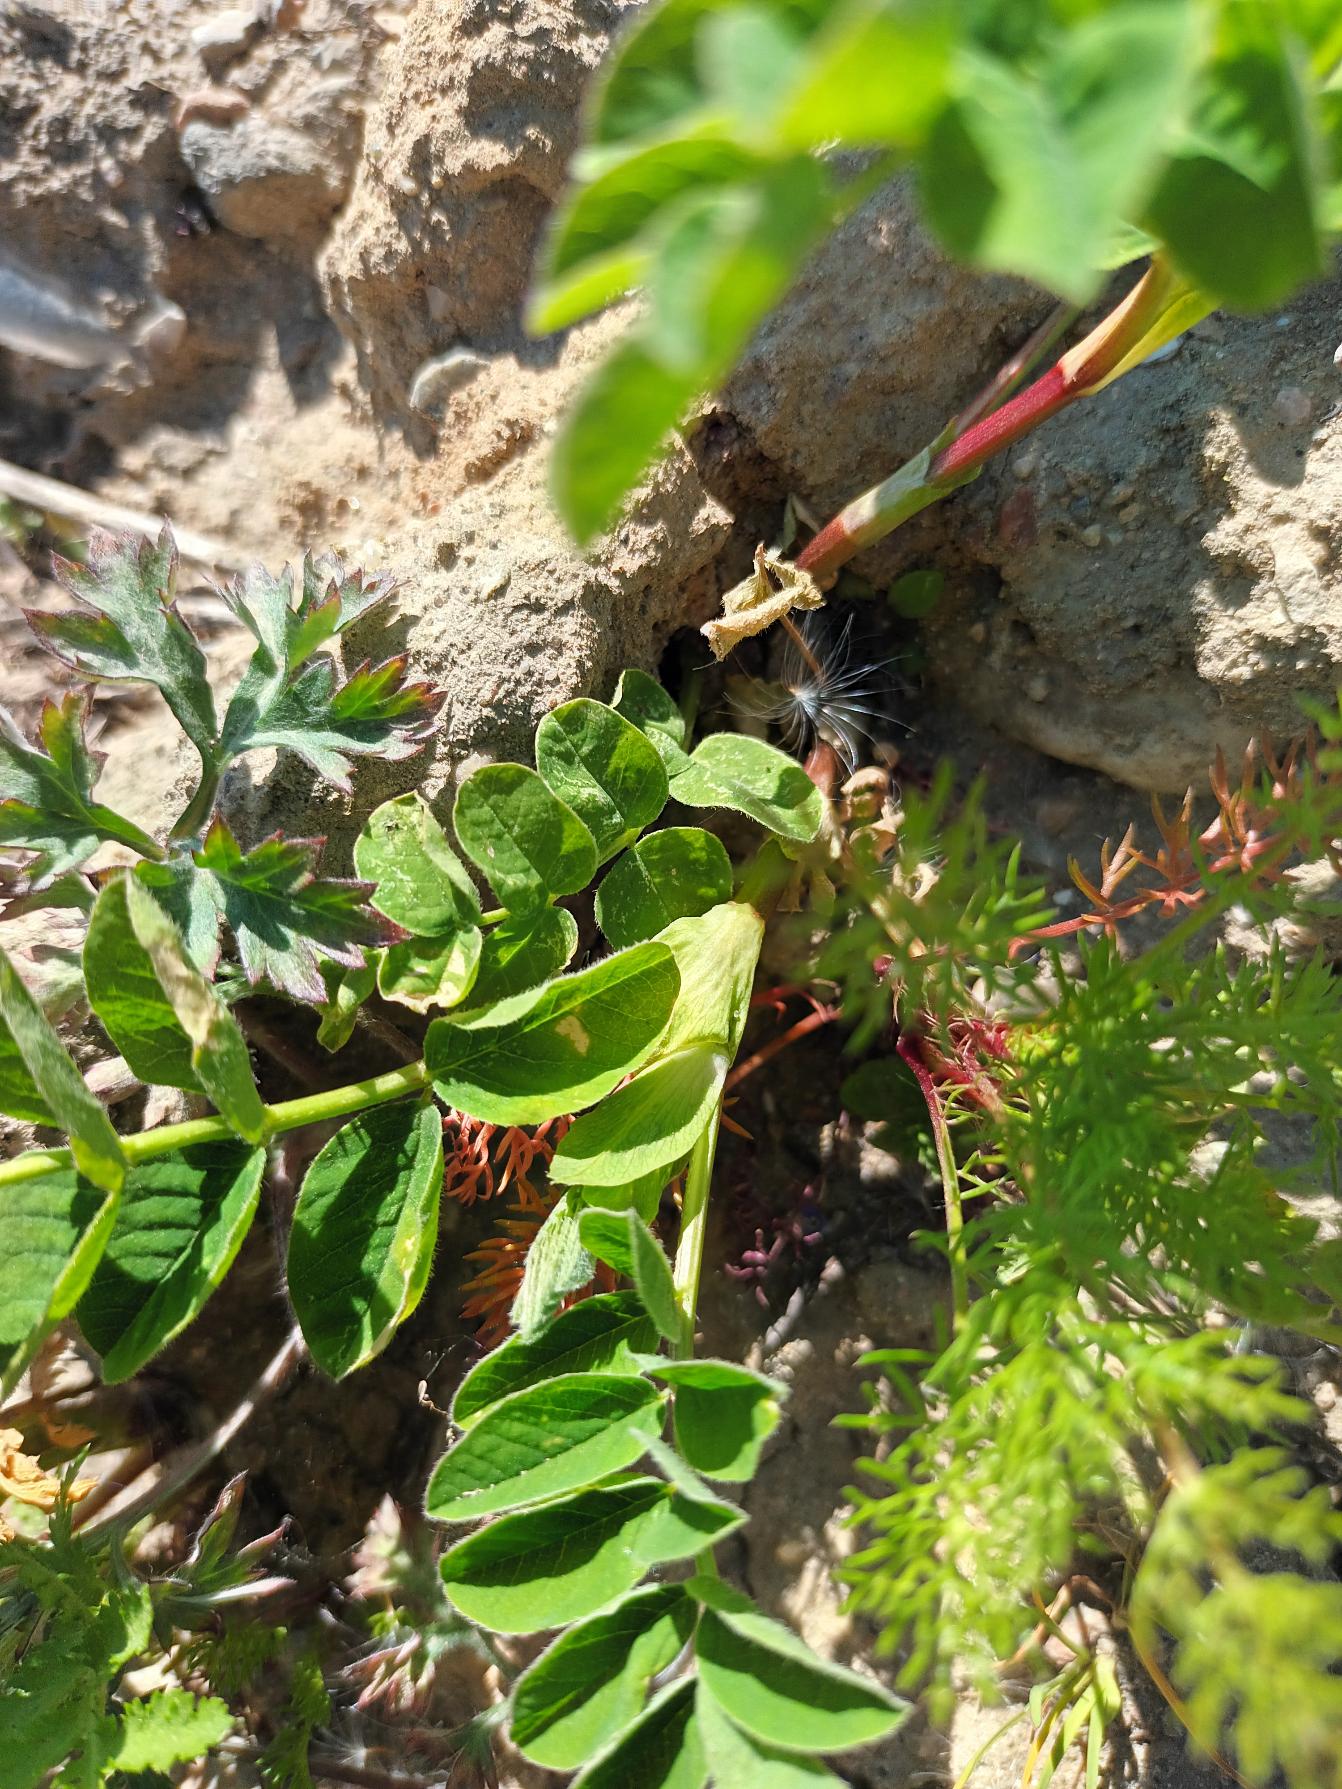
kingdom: Plantae
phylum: Tracheophyta
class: Magnoliopsida
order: Fabales
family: Fabaceae
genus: Astragalus
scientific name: Astragalus glycyphyllos
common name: Sød astragel
